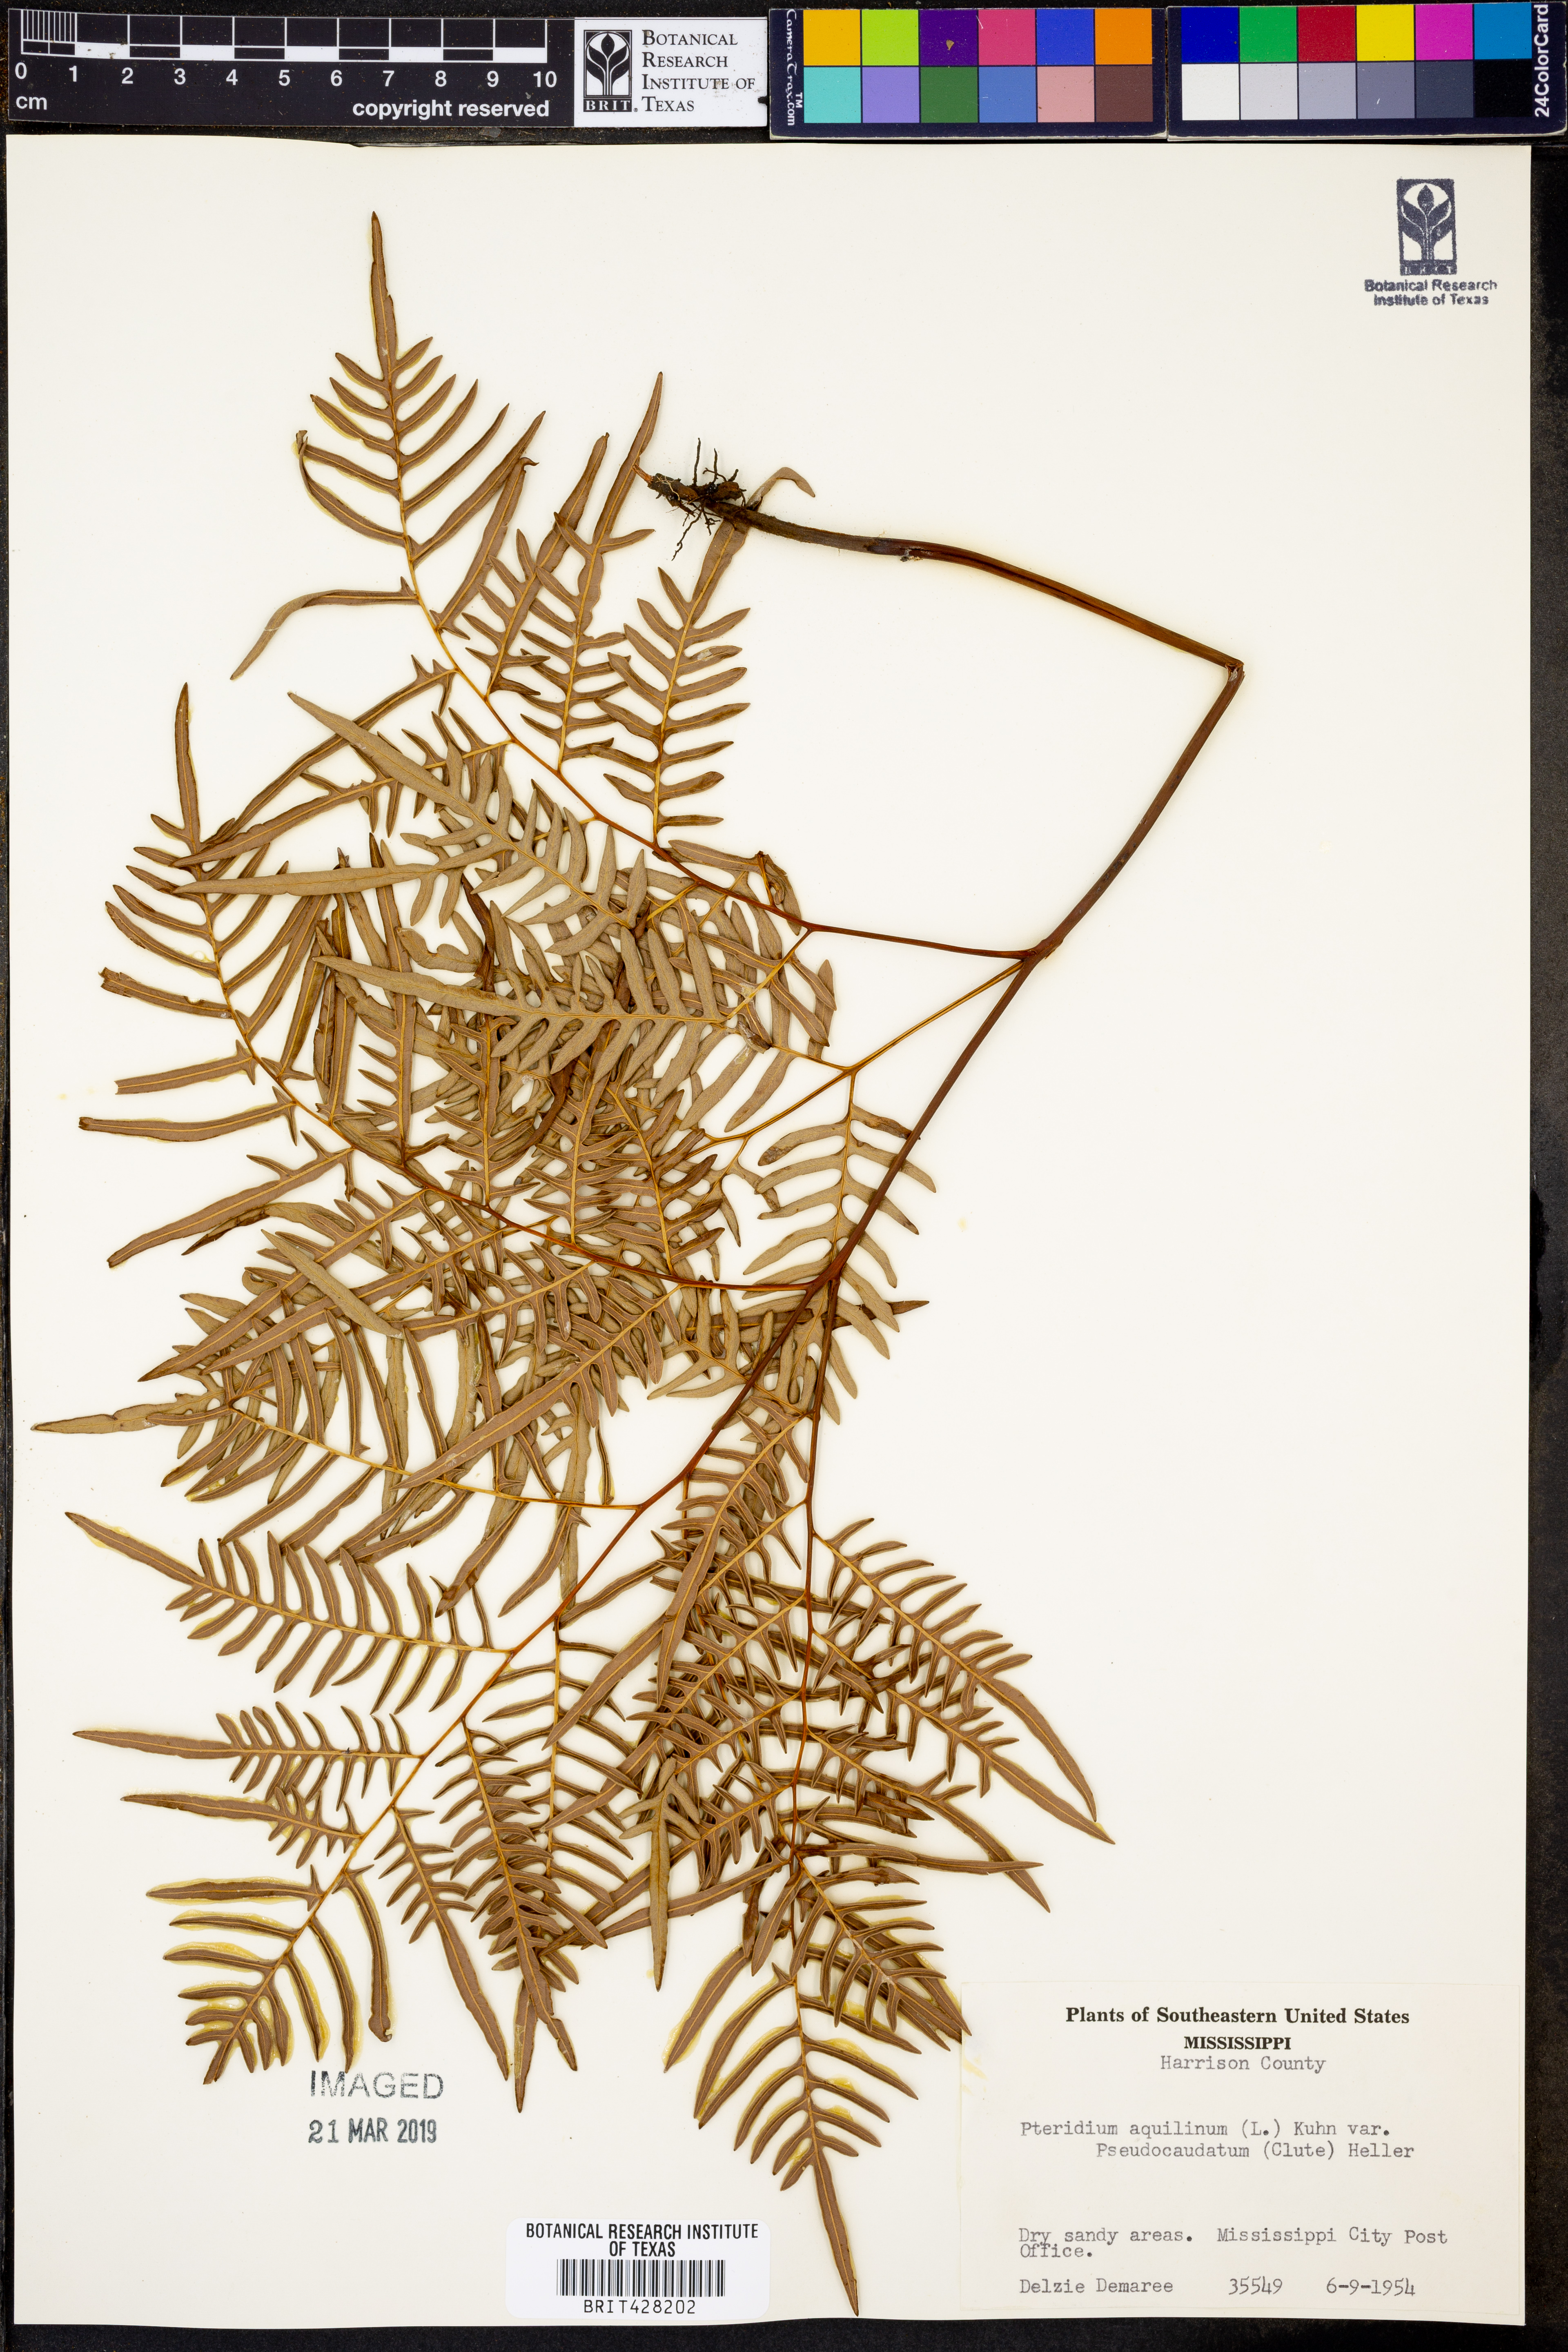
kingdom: Plantae
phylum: Tracheophyta
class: Polypodiopsida
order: Polypodiales
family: Dennstaedtiaceae
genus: Pteridium
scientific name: Pteridium aquilinum
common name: Bracken
